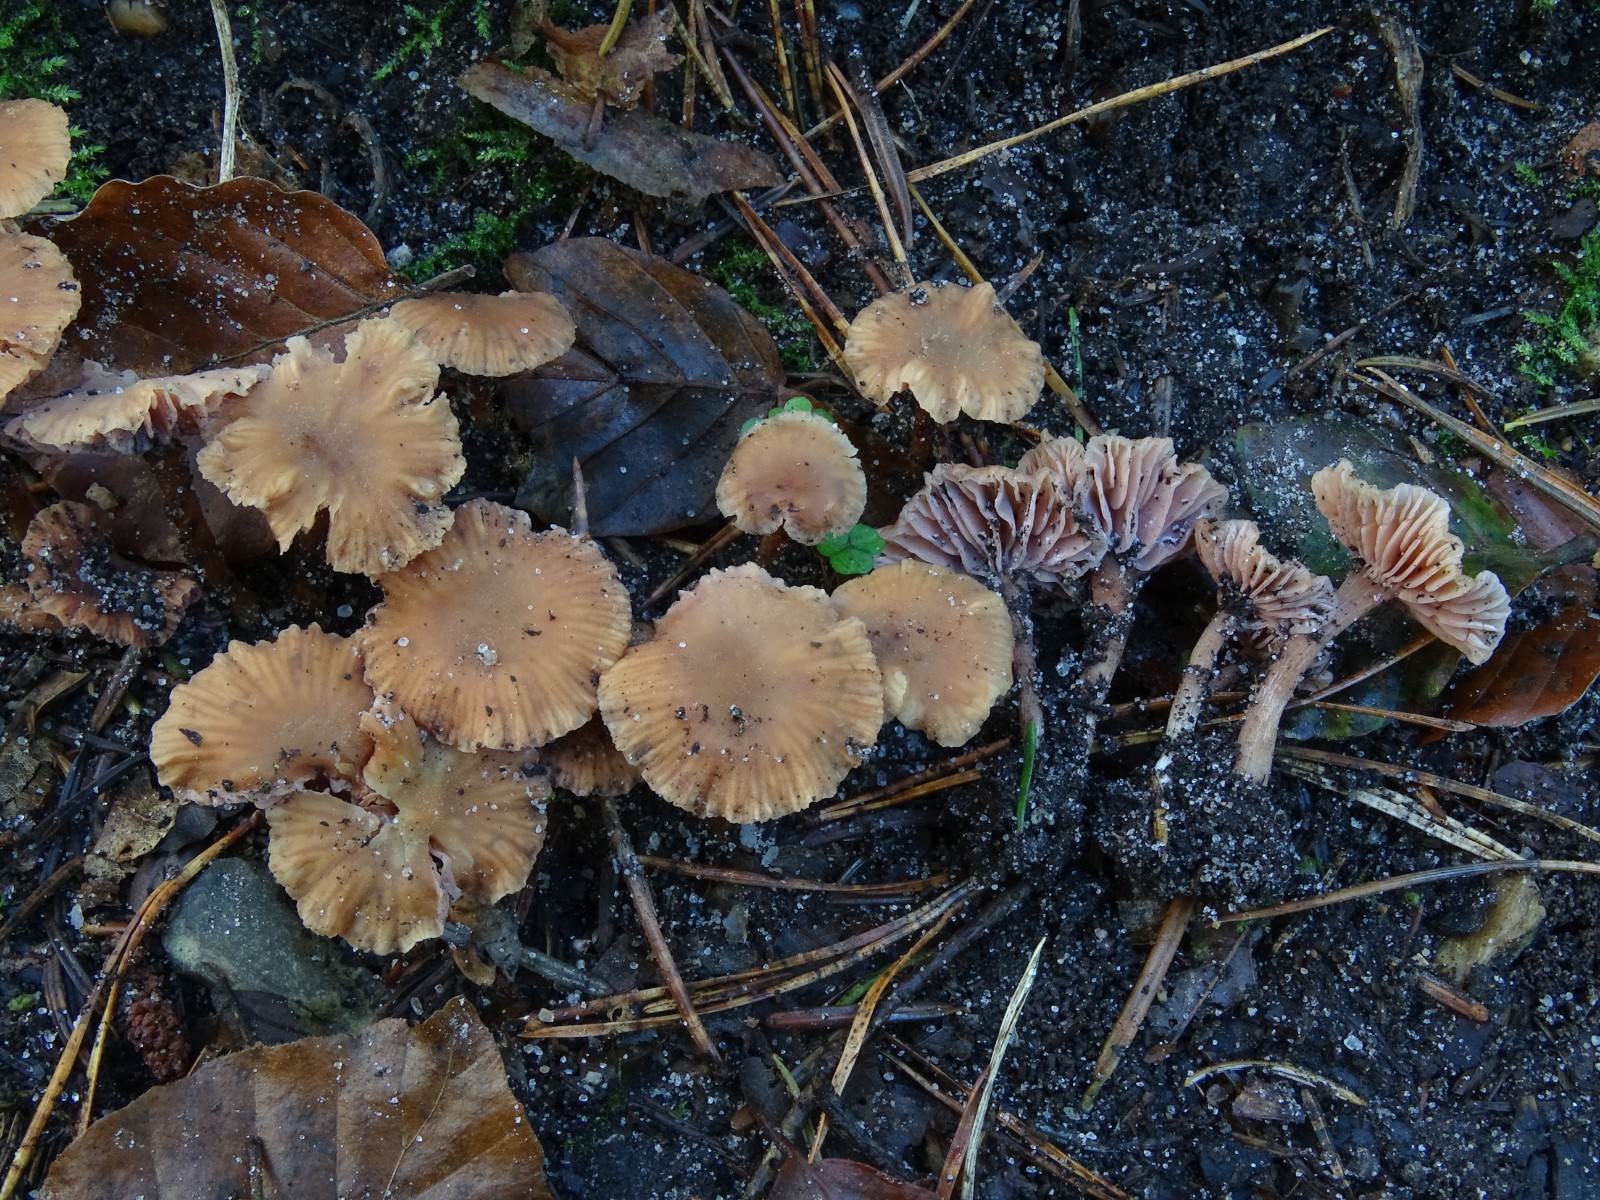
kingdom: Fungi
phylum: Basidiomycota
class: Agaricomycetes
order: Agaricales
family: Hydnangiaceae
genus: Laccaria
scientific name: Laccaria tortilis
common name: krybende ametysthat
